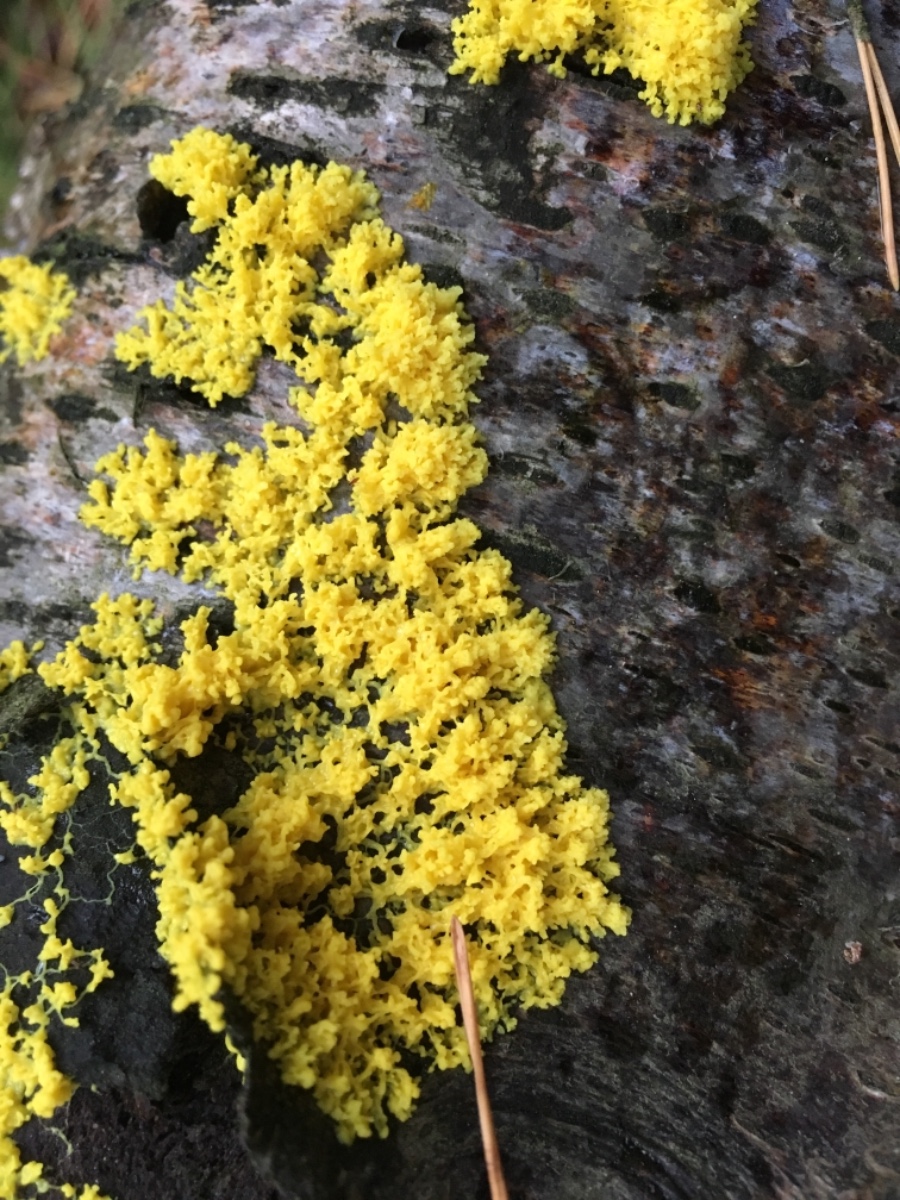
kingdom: Protozoa
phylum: Mycetozoa
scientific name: Mycetozoa
